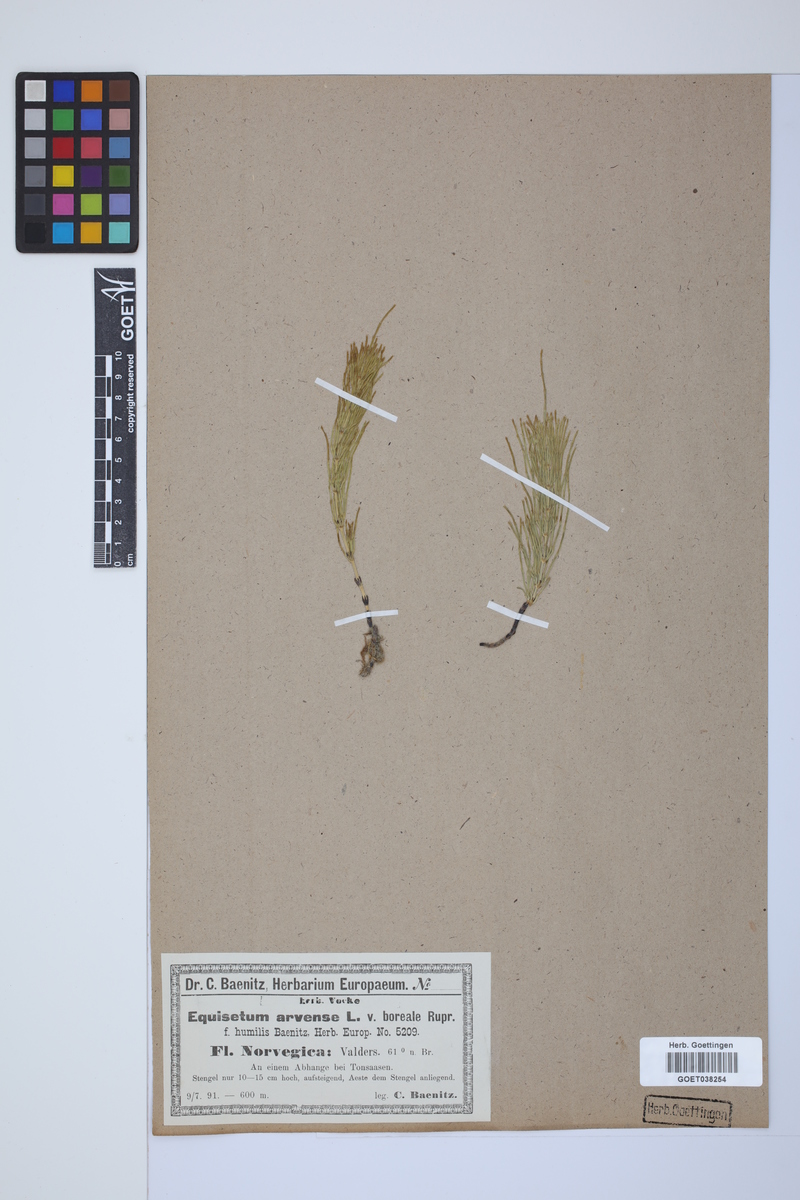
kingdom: Plantae
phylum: Tracheophyta
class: Polypodiopsida
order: Equisetales
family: Equisetaceae
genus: Equisetum
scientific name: Equisetum arvense
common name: Field horsetail
